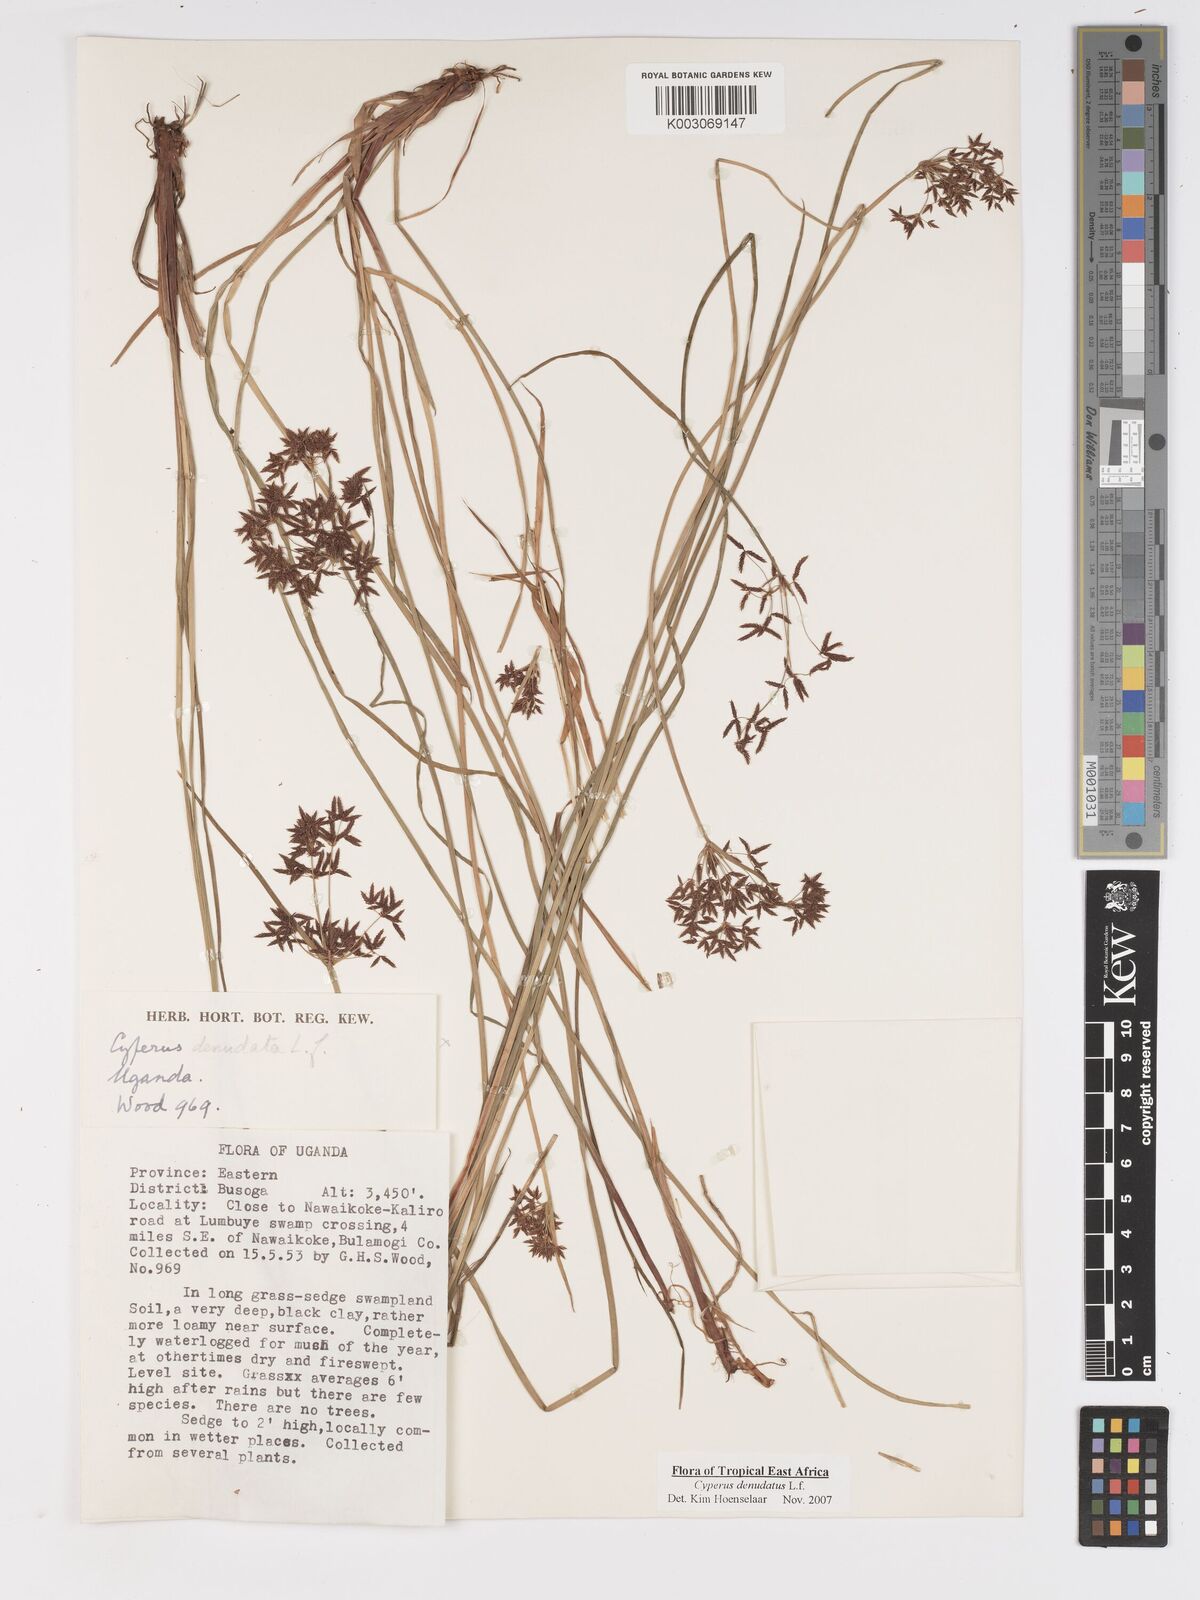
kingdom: Plantae
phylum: Tracheophyta
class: Liliopsida
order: Poales
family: Cyperaceae
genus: Cyperus
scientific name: Cyperus denudatus
